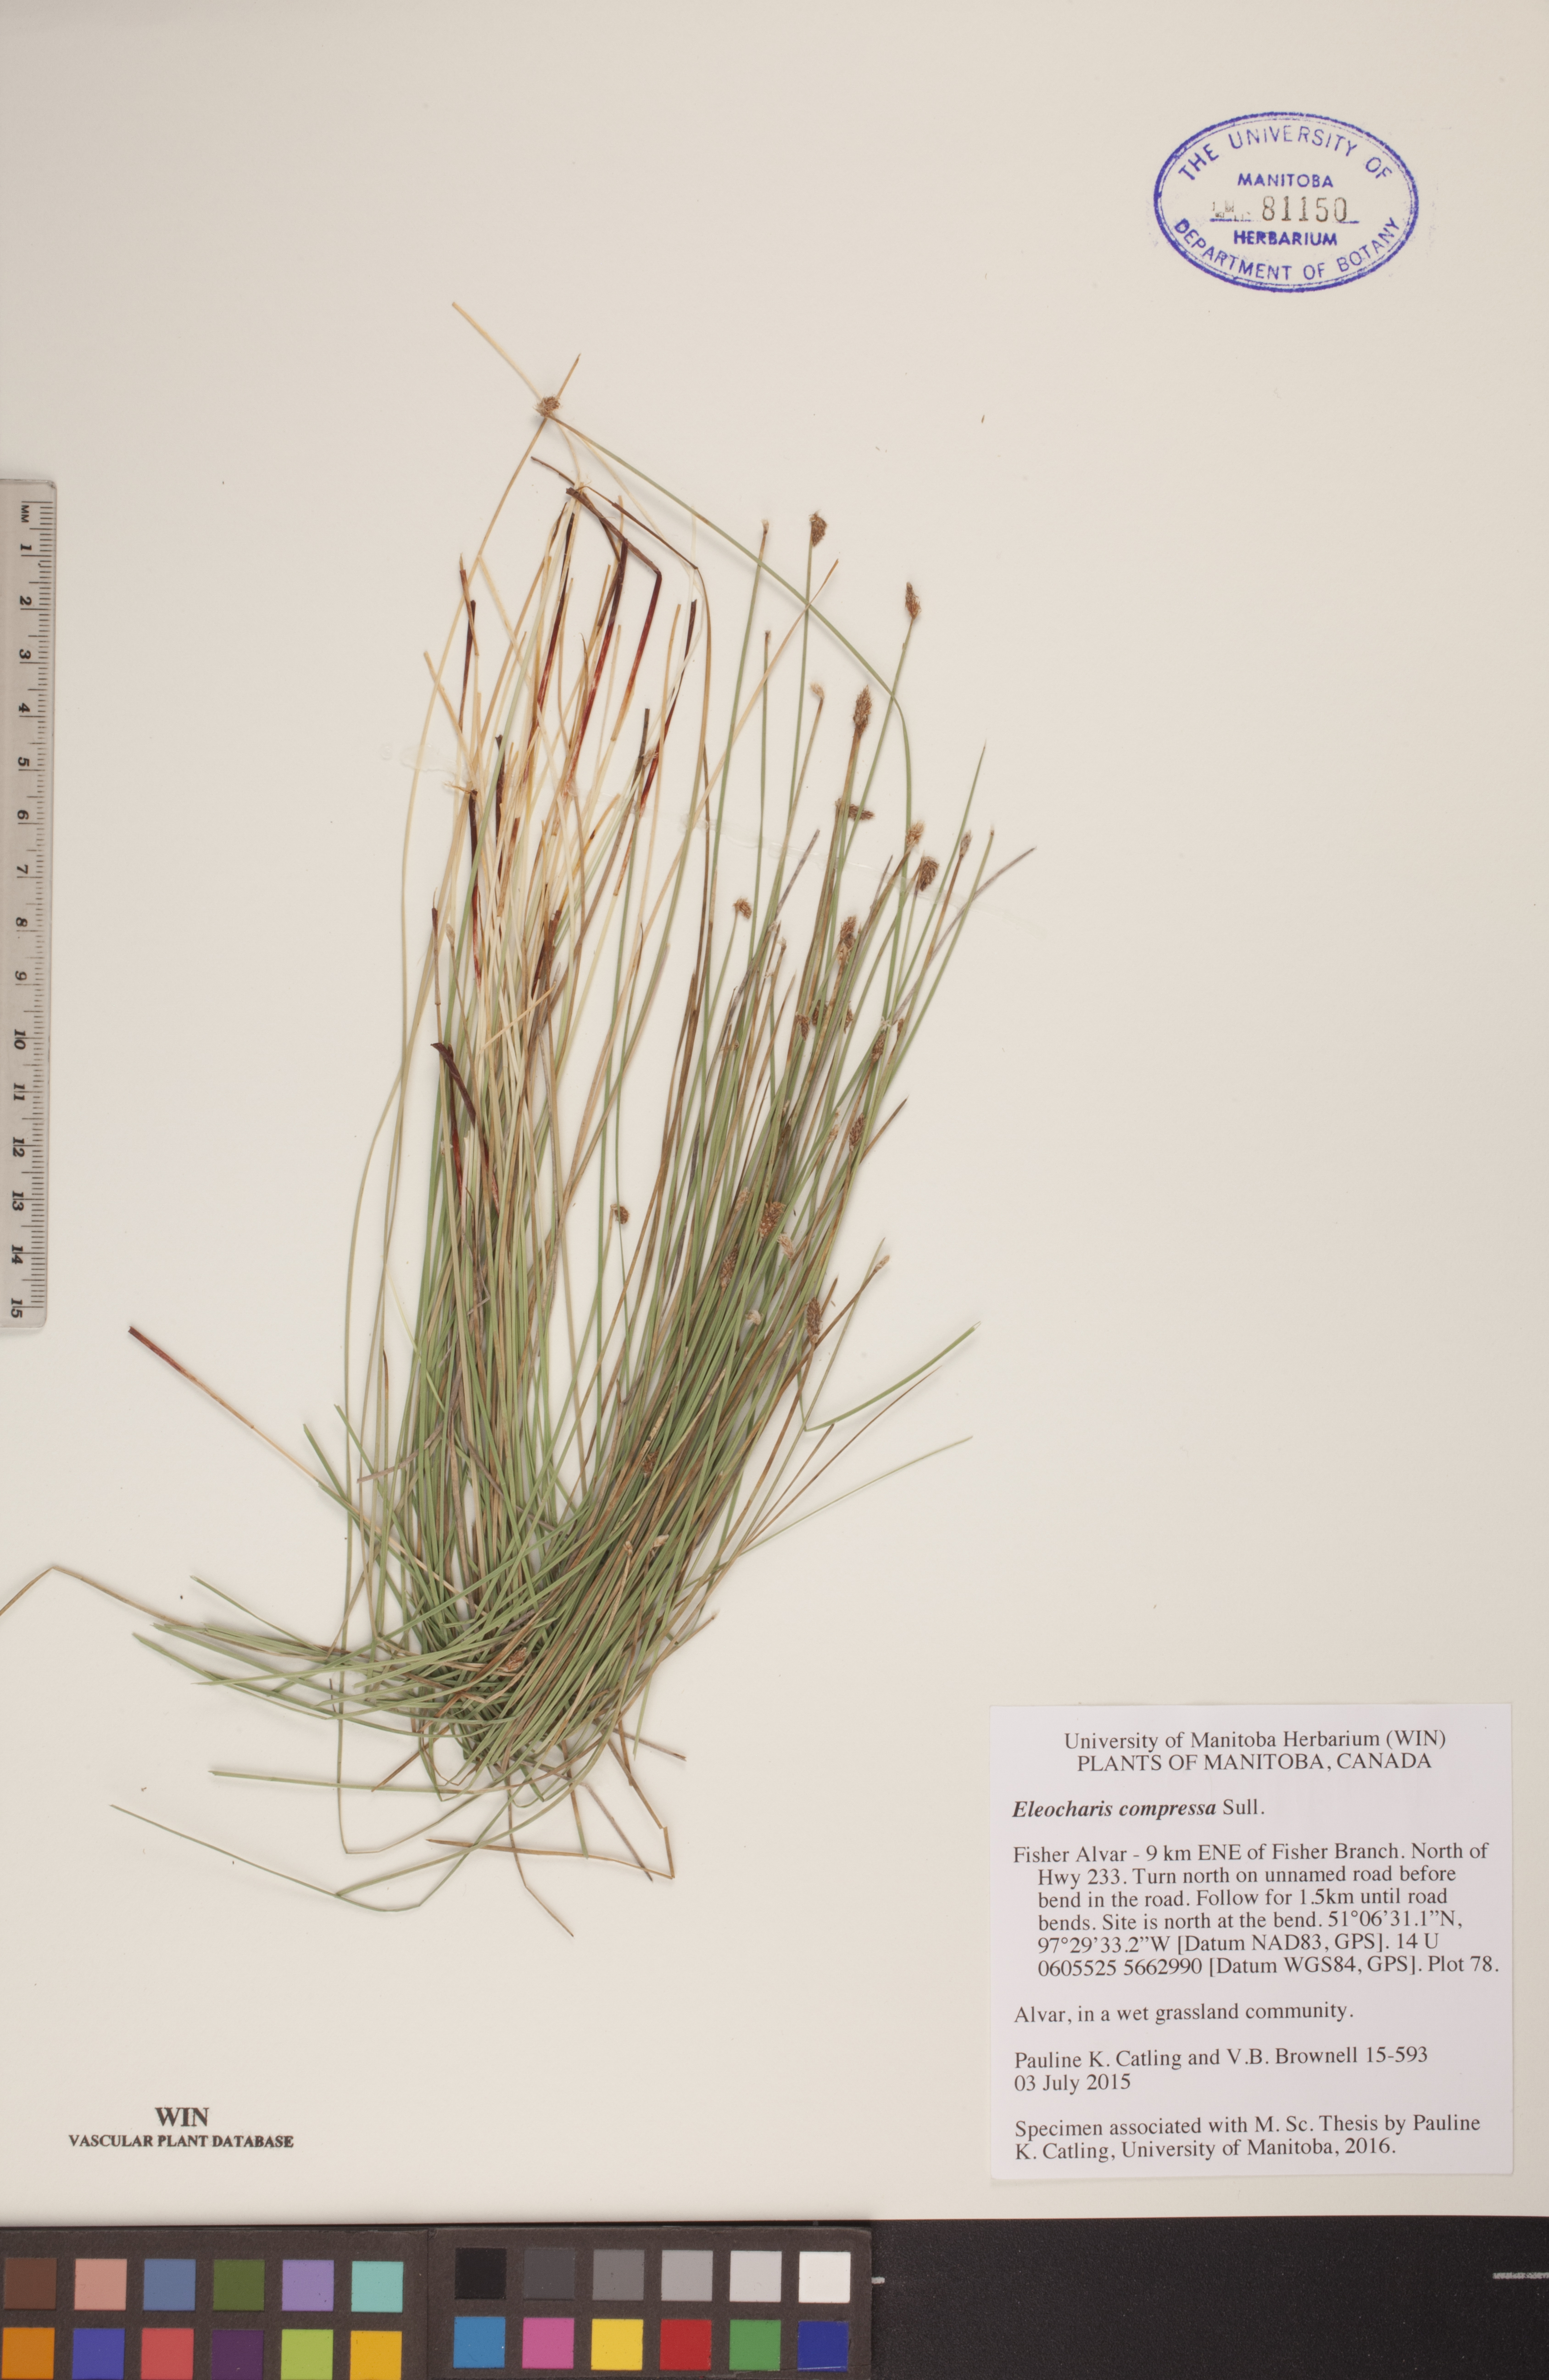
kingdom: Plantae
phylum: Tracheophyta
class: Liliopsida
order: Poales
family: Cyperaceae
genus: Eleocharis
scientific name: Eleocharis compressa
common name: Flat-stem spike-rush
